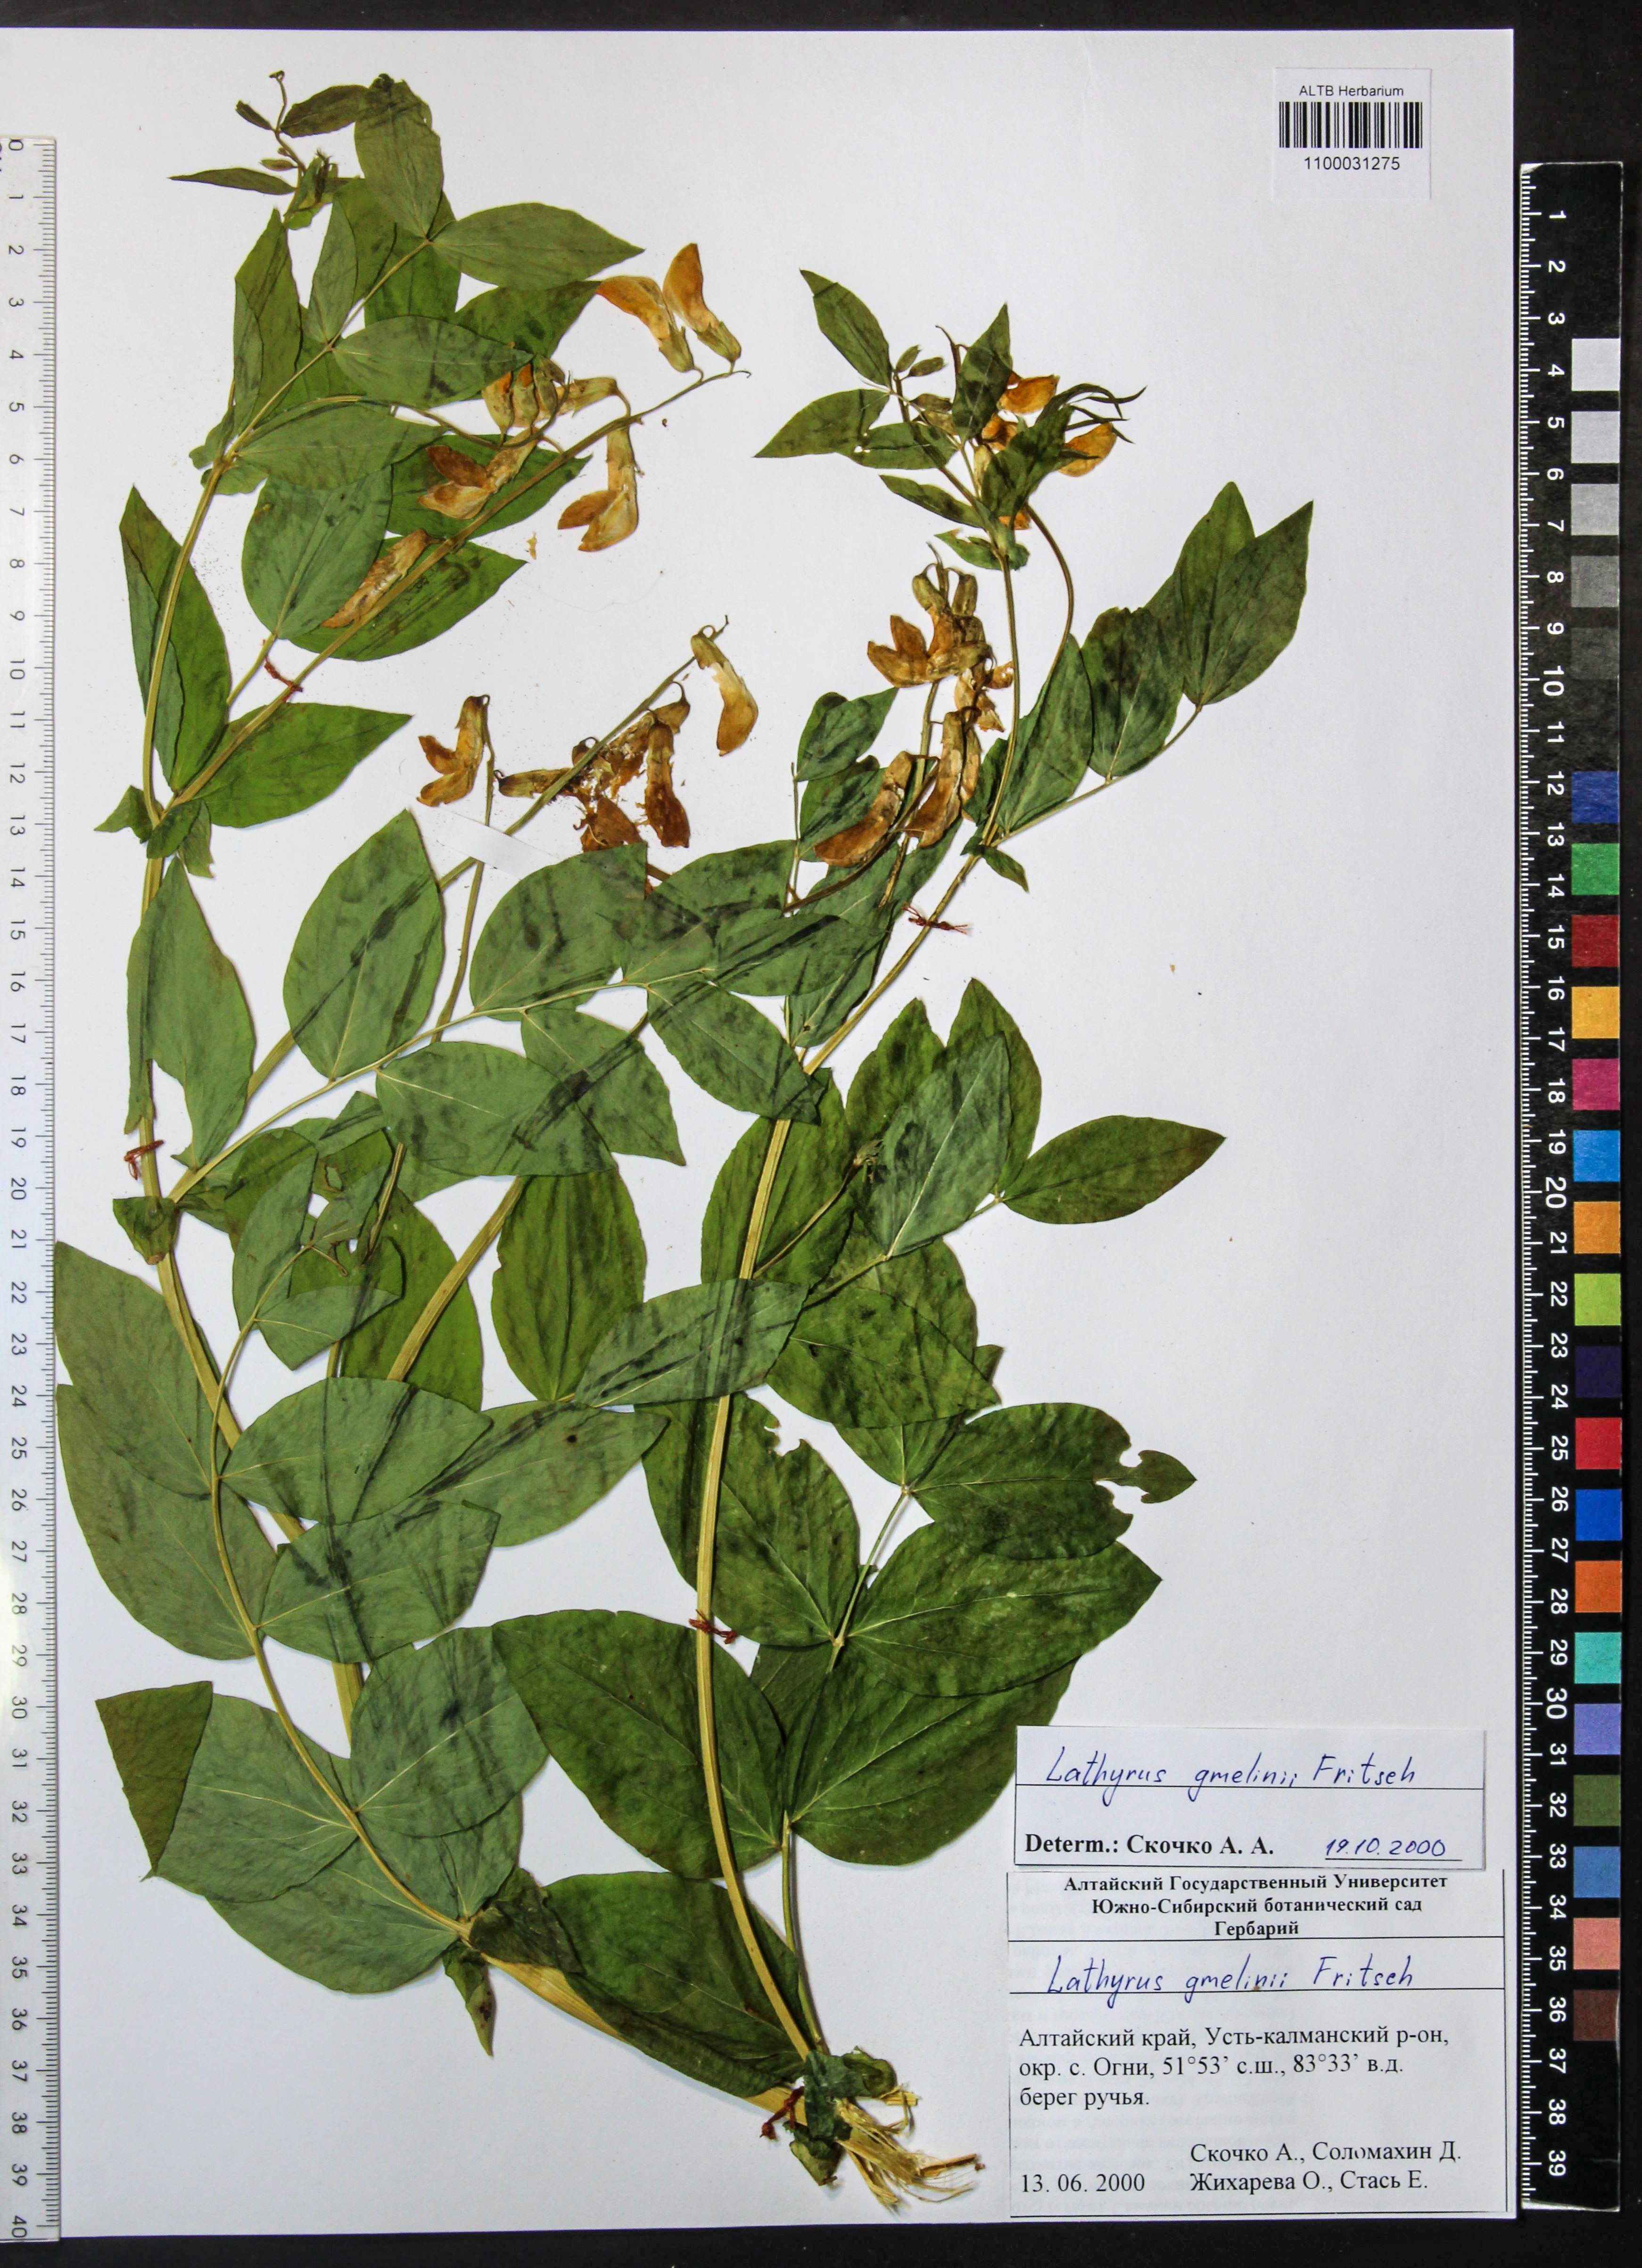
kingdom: Plantae
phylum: Tracheophyta
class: Magnoliopsida
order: Fabales
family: Fabaceae
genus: Lathyrus
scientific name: Lathyrus gmelinii
